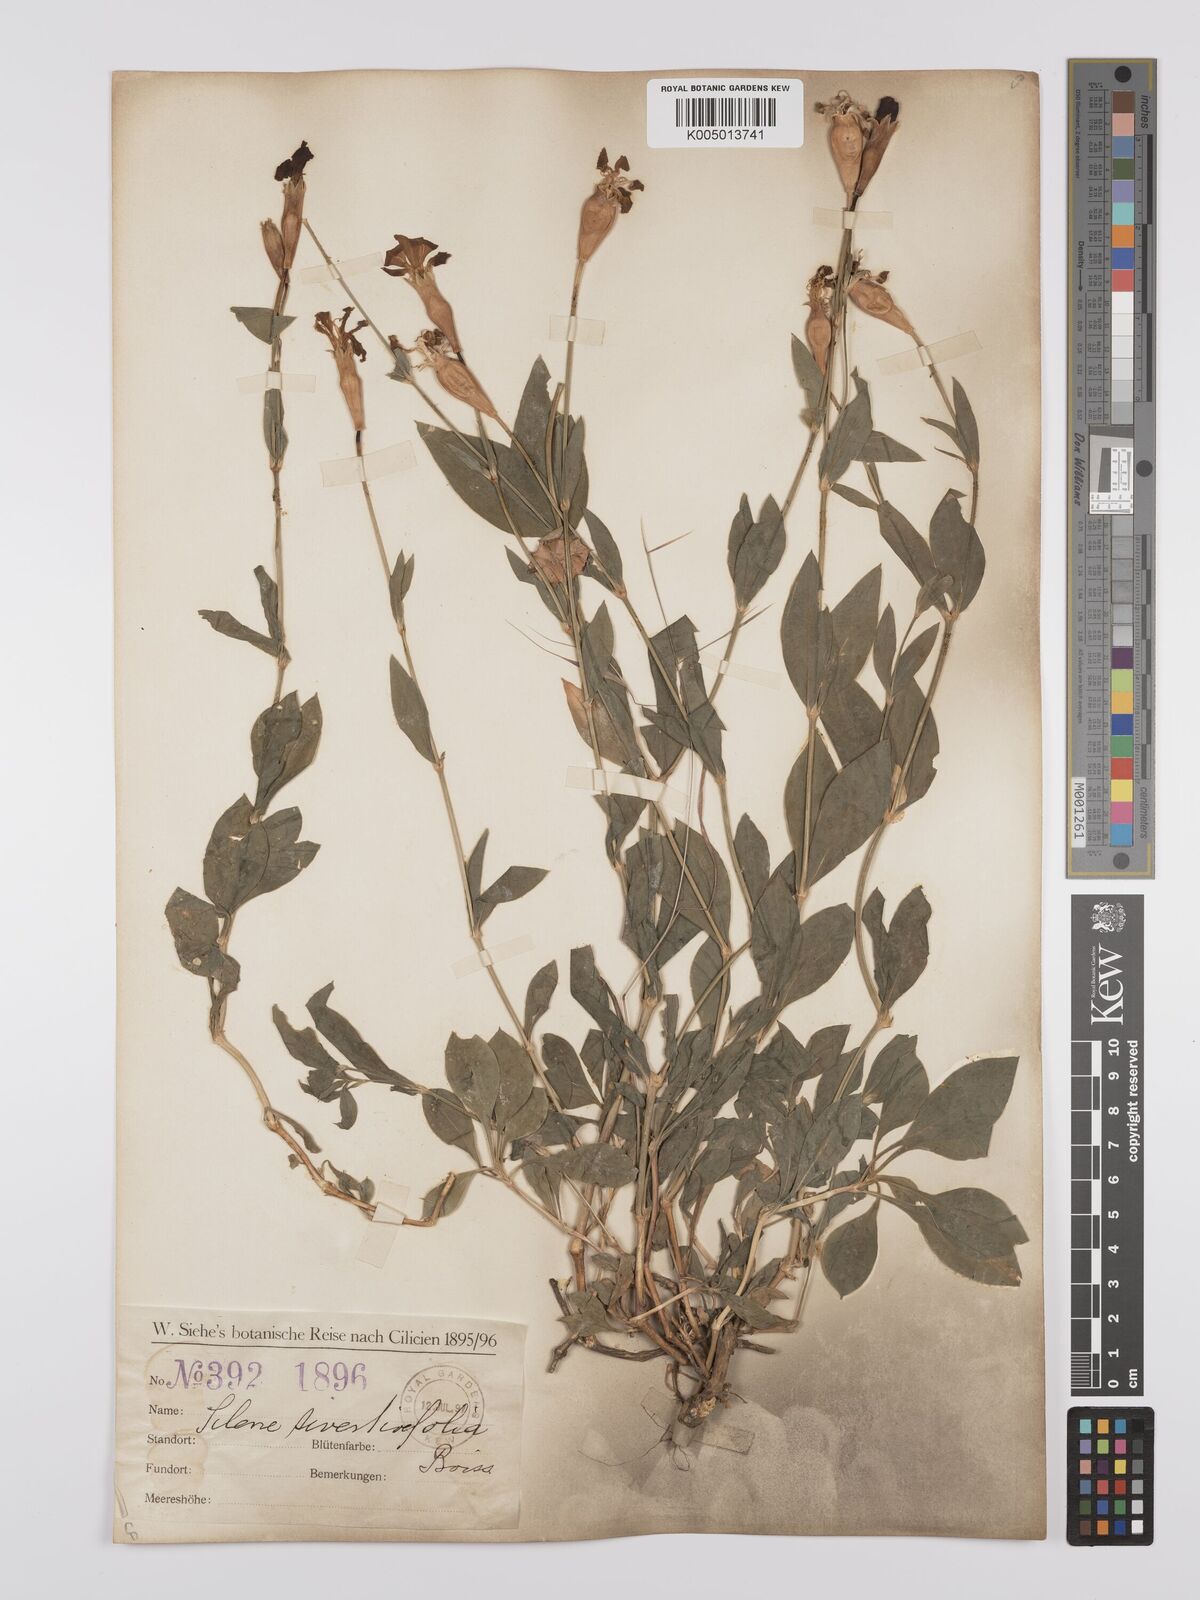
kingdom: Plantae
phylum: Tracheophyta
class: Magnoliopsida
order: Caryophyllales
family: Caryophyllaceae
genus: Silene
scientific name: Silene swertiifolia
